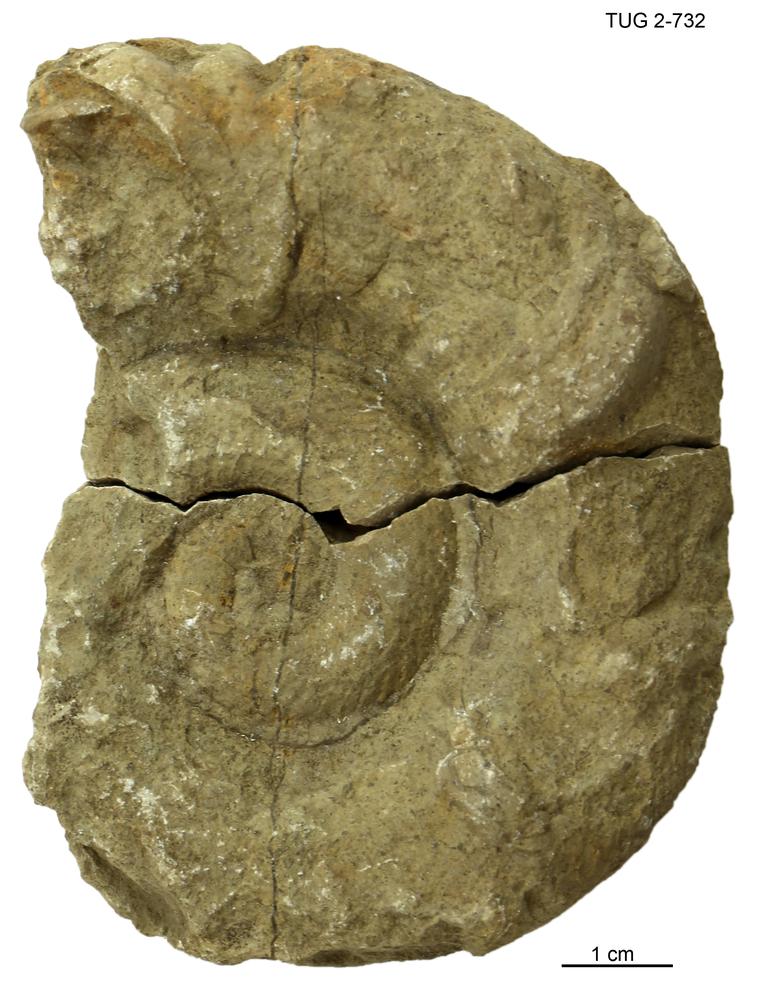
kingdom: Animalia
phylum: Mollusca
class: Cephalopoda
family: Trocholitidae
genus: Discoceras
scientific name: Discoceras
